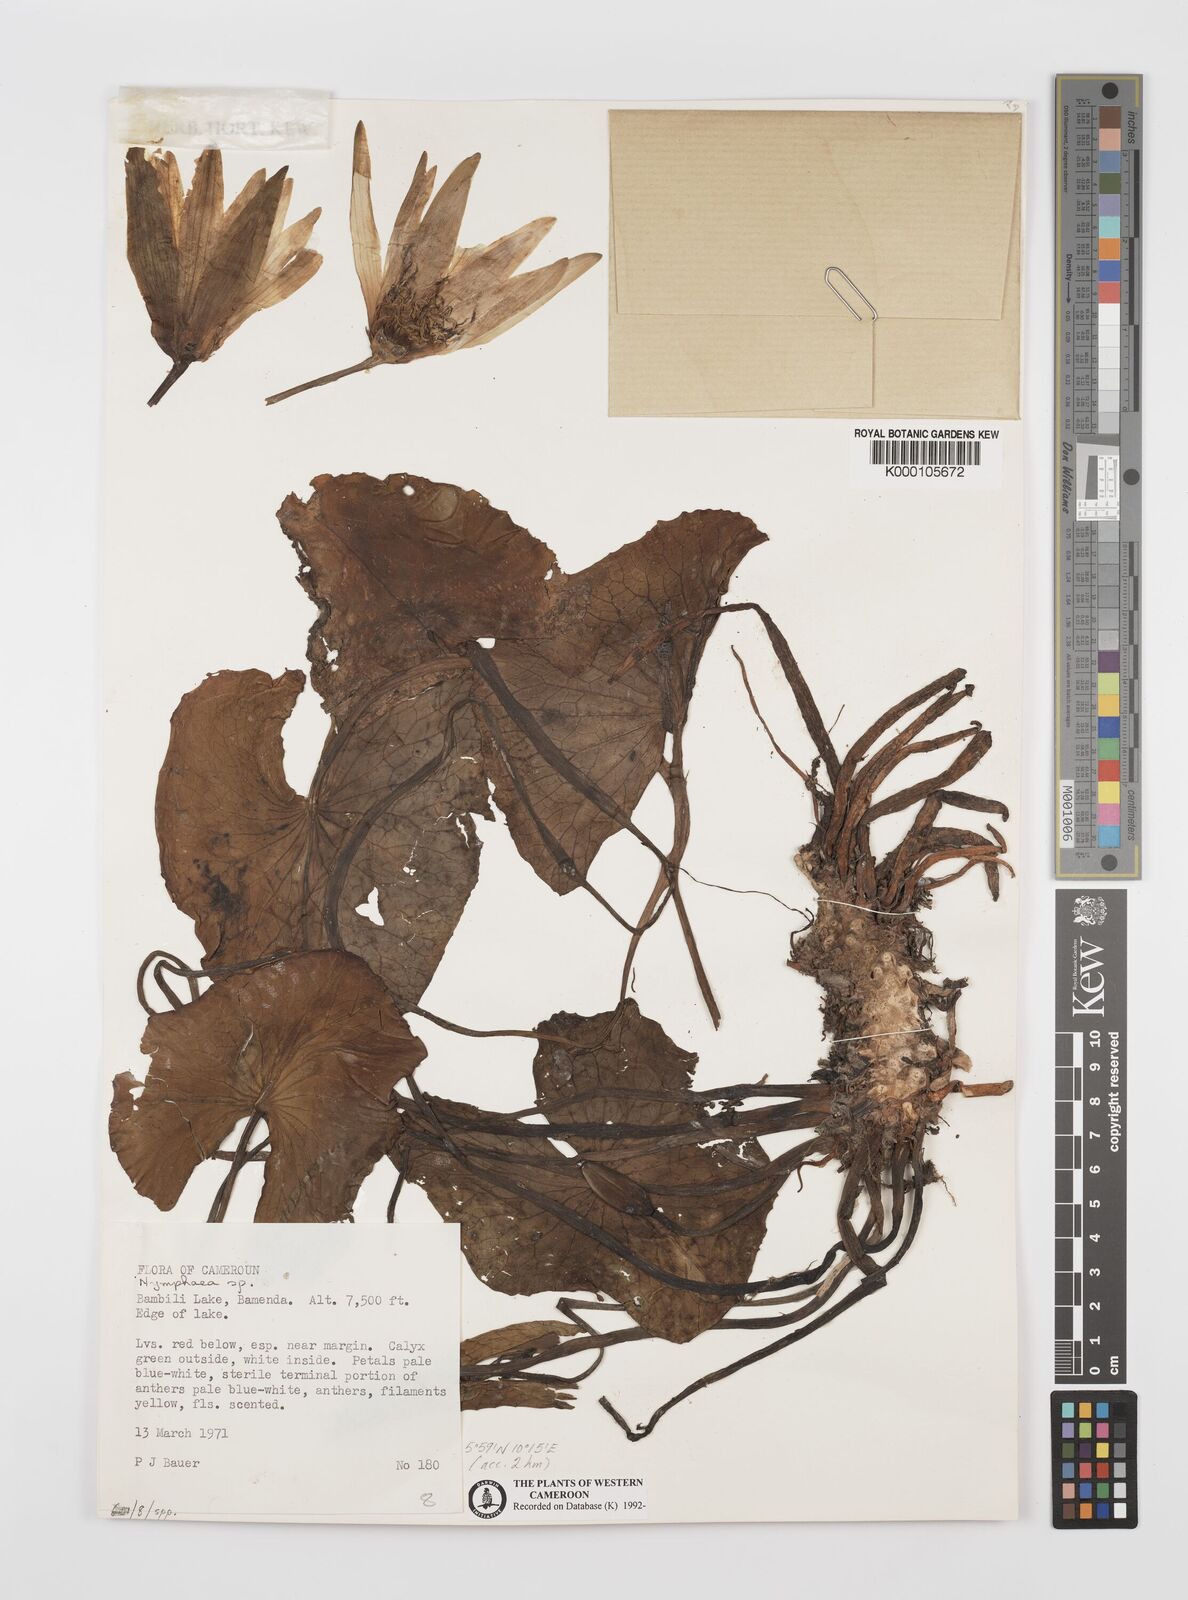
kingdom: Plantae
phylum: Tracheophyta
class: Magnoliopsida
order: Nymphaeales
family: Nymphaeaceae
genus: Nymphaea
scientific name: Nymphaea
